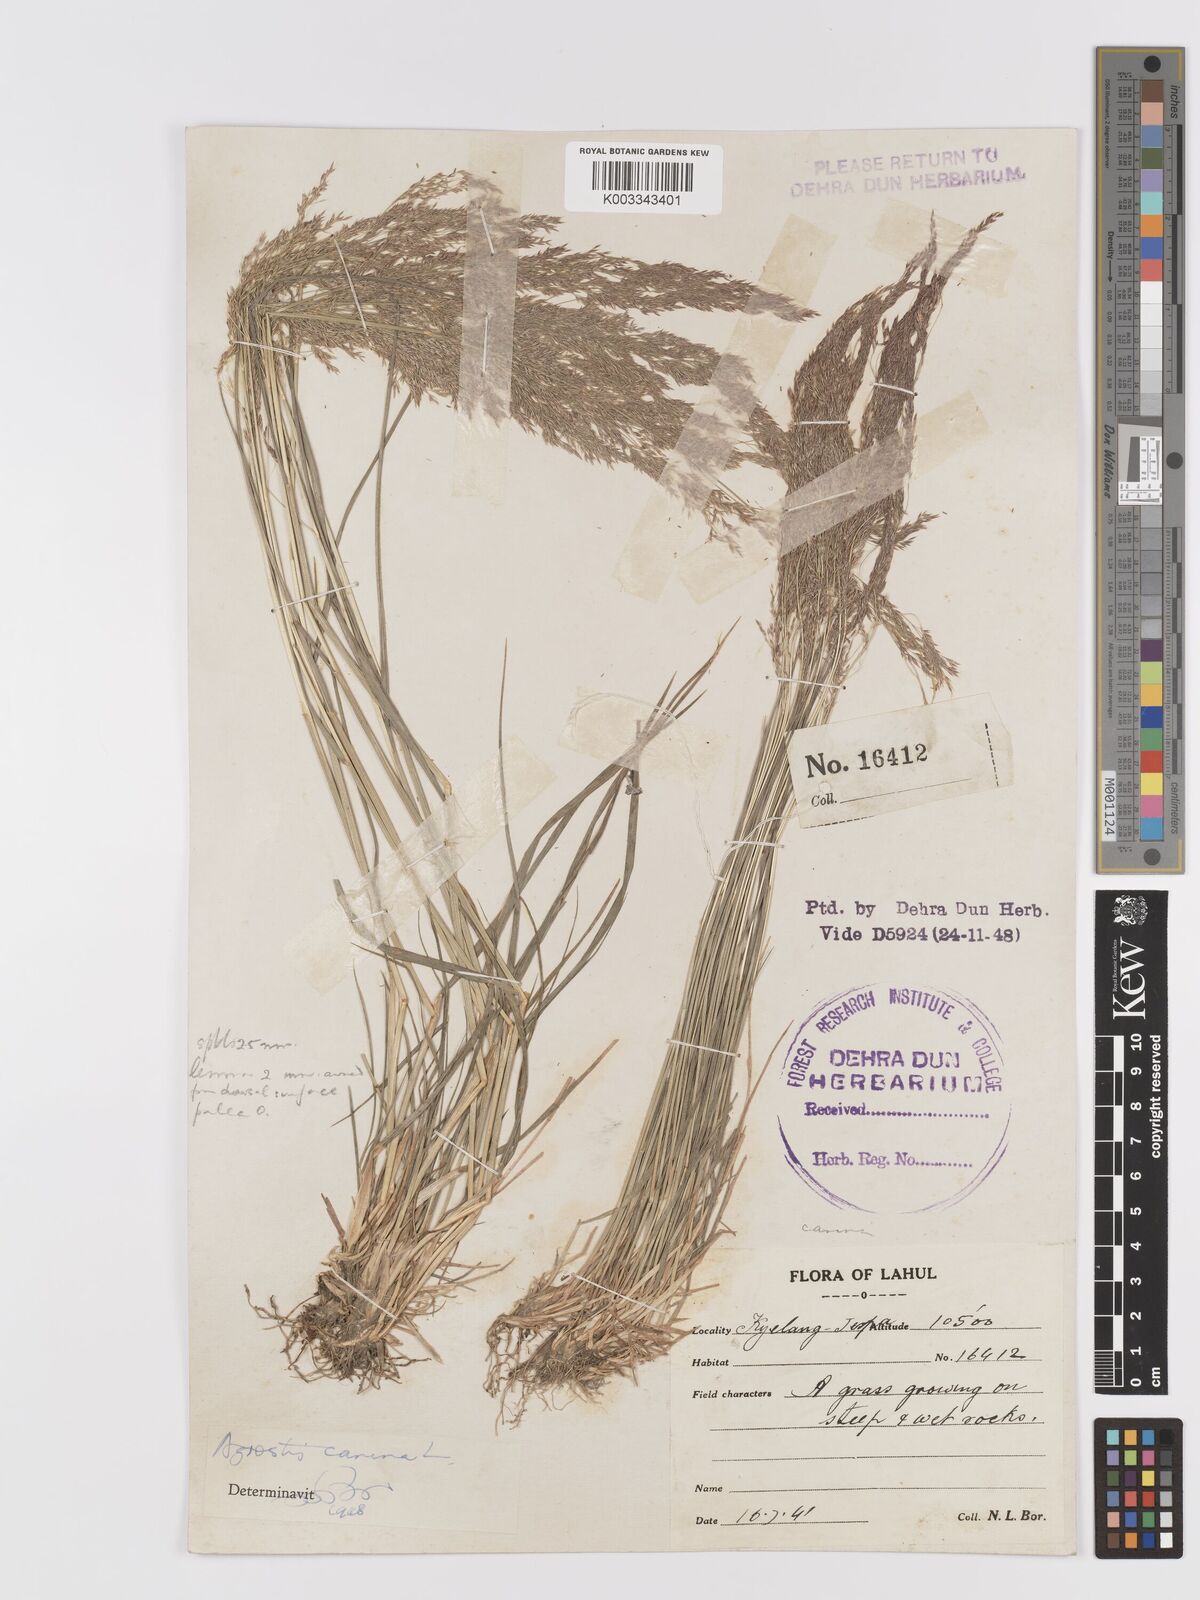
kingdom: Plantae
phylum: Tracheophyta
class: Liliopsida
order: Poales
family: Poaceae
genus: Agrostis
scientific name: Agrostis vinealis
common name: Brown bent
